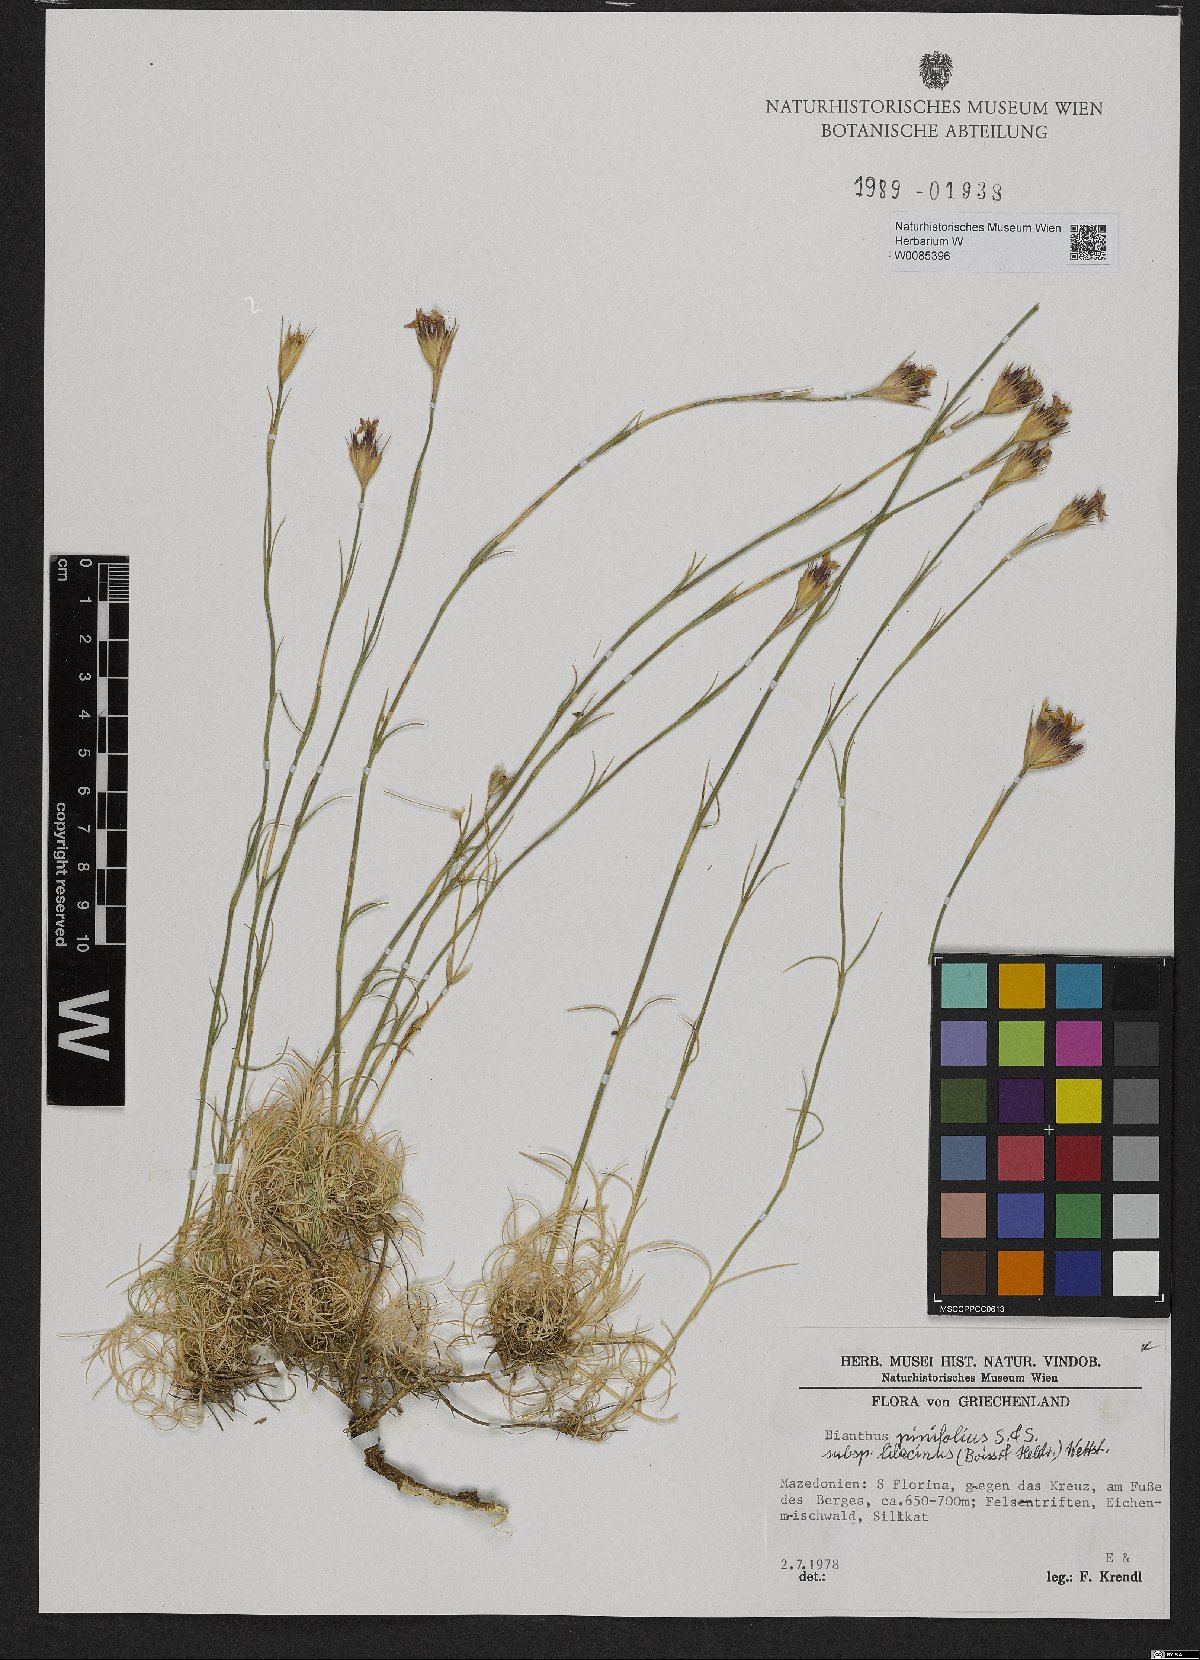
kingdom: Plantae
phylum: Tracheophyta
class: Magnoliopsida
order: Caryophyllales
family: Caryophyllaceae
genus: Dianthus
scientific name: Dianthus pinifolius
